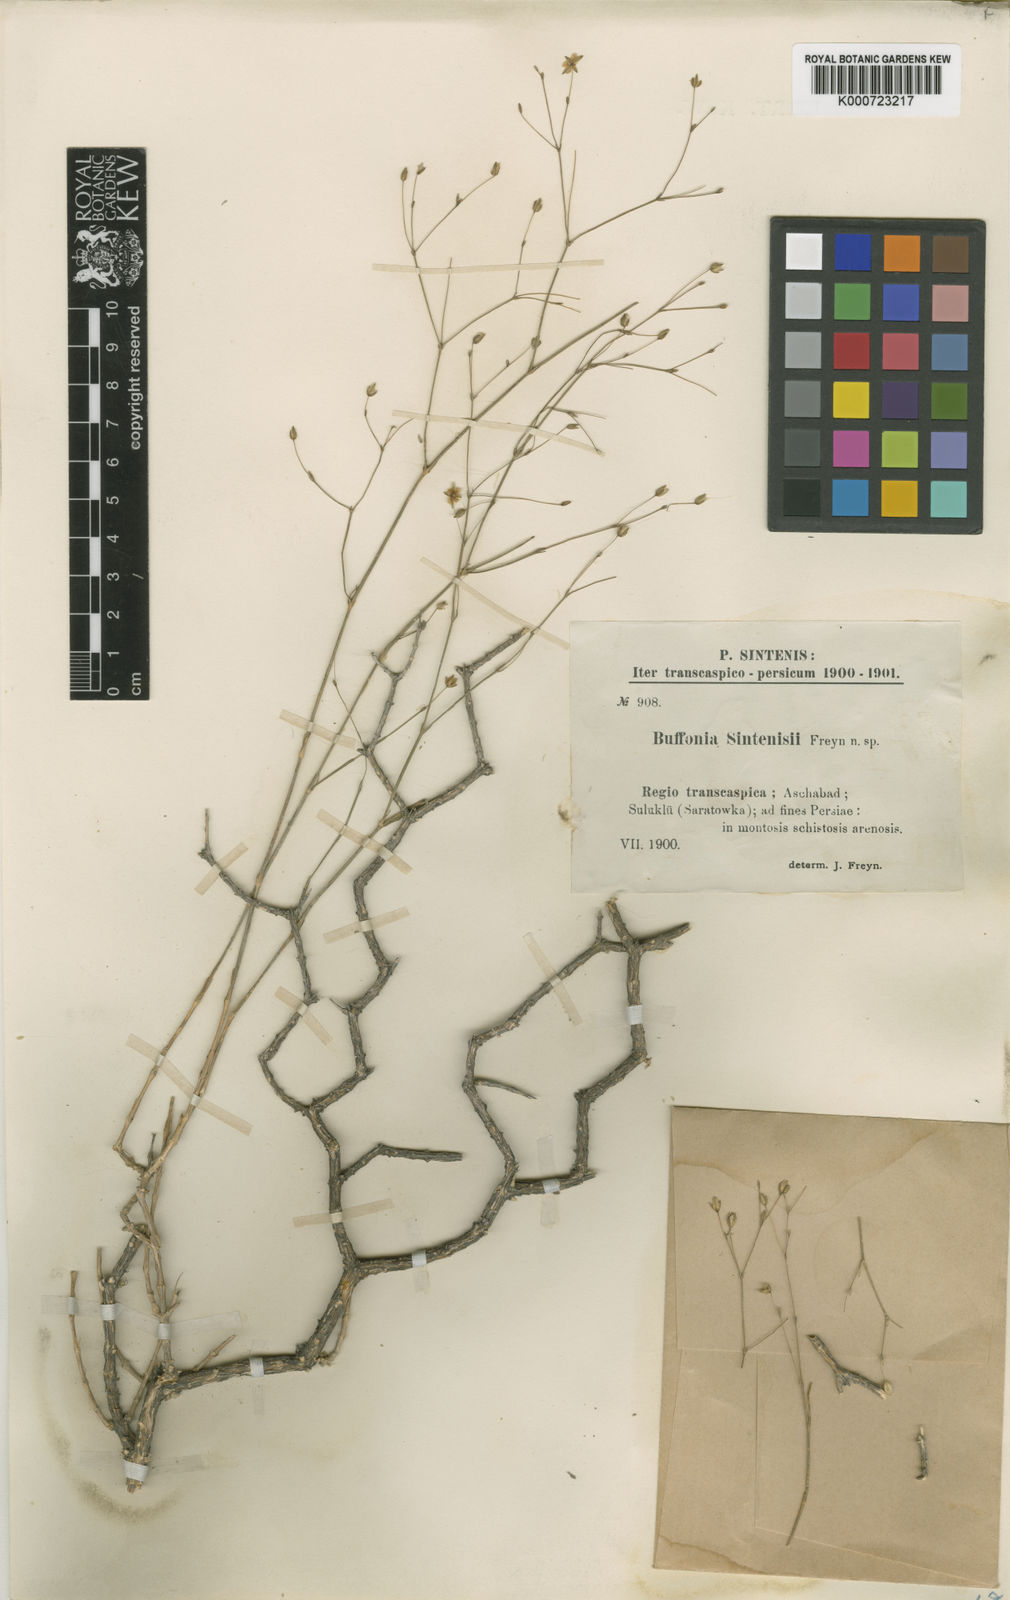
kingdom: Plantae
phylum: Tracheophyta
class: Magnoliopsida
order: Caryophyllales
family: Caryophyllaceae
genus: Bufonia
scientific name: Bufonia sintenisii
